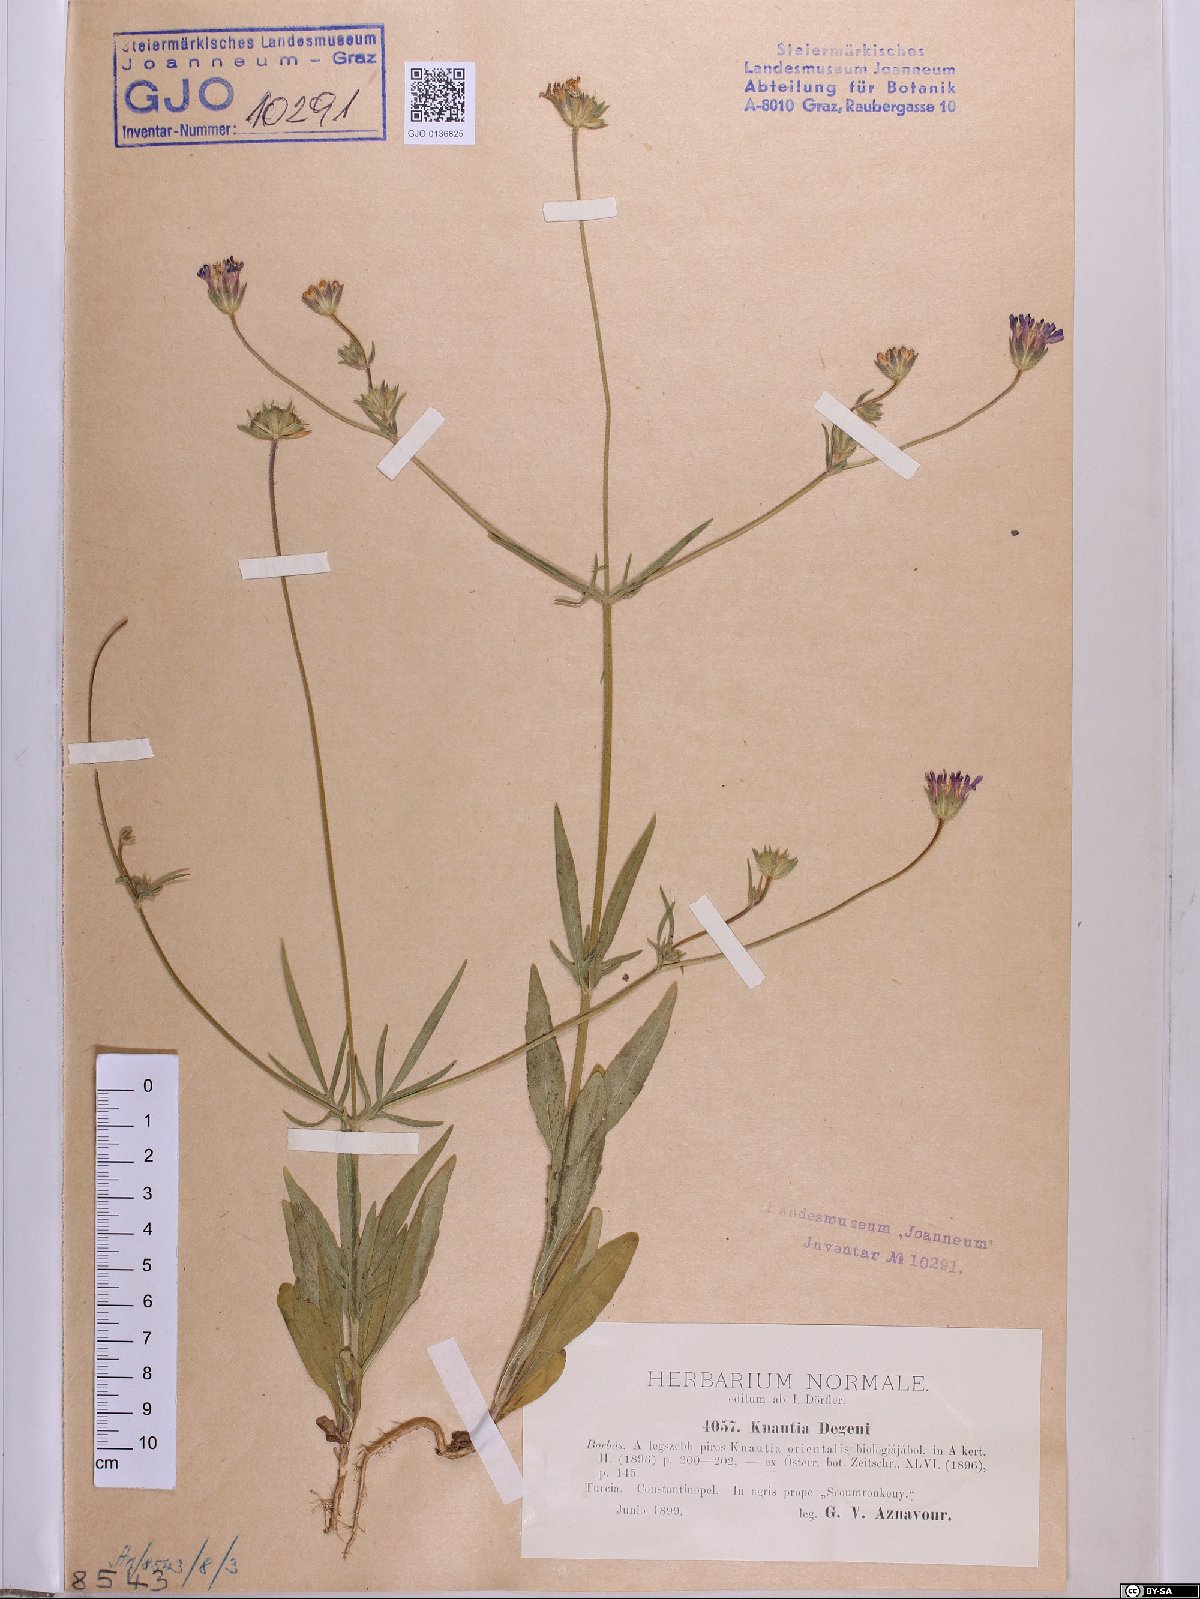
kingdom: Plantae
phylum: Tracheophyta
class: Magnoliopsida
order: Dipsacales
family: Caprifoliaceae
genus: Knautia
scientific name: Knautia degenii
